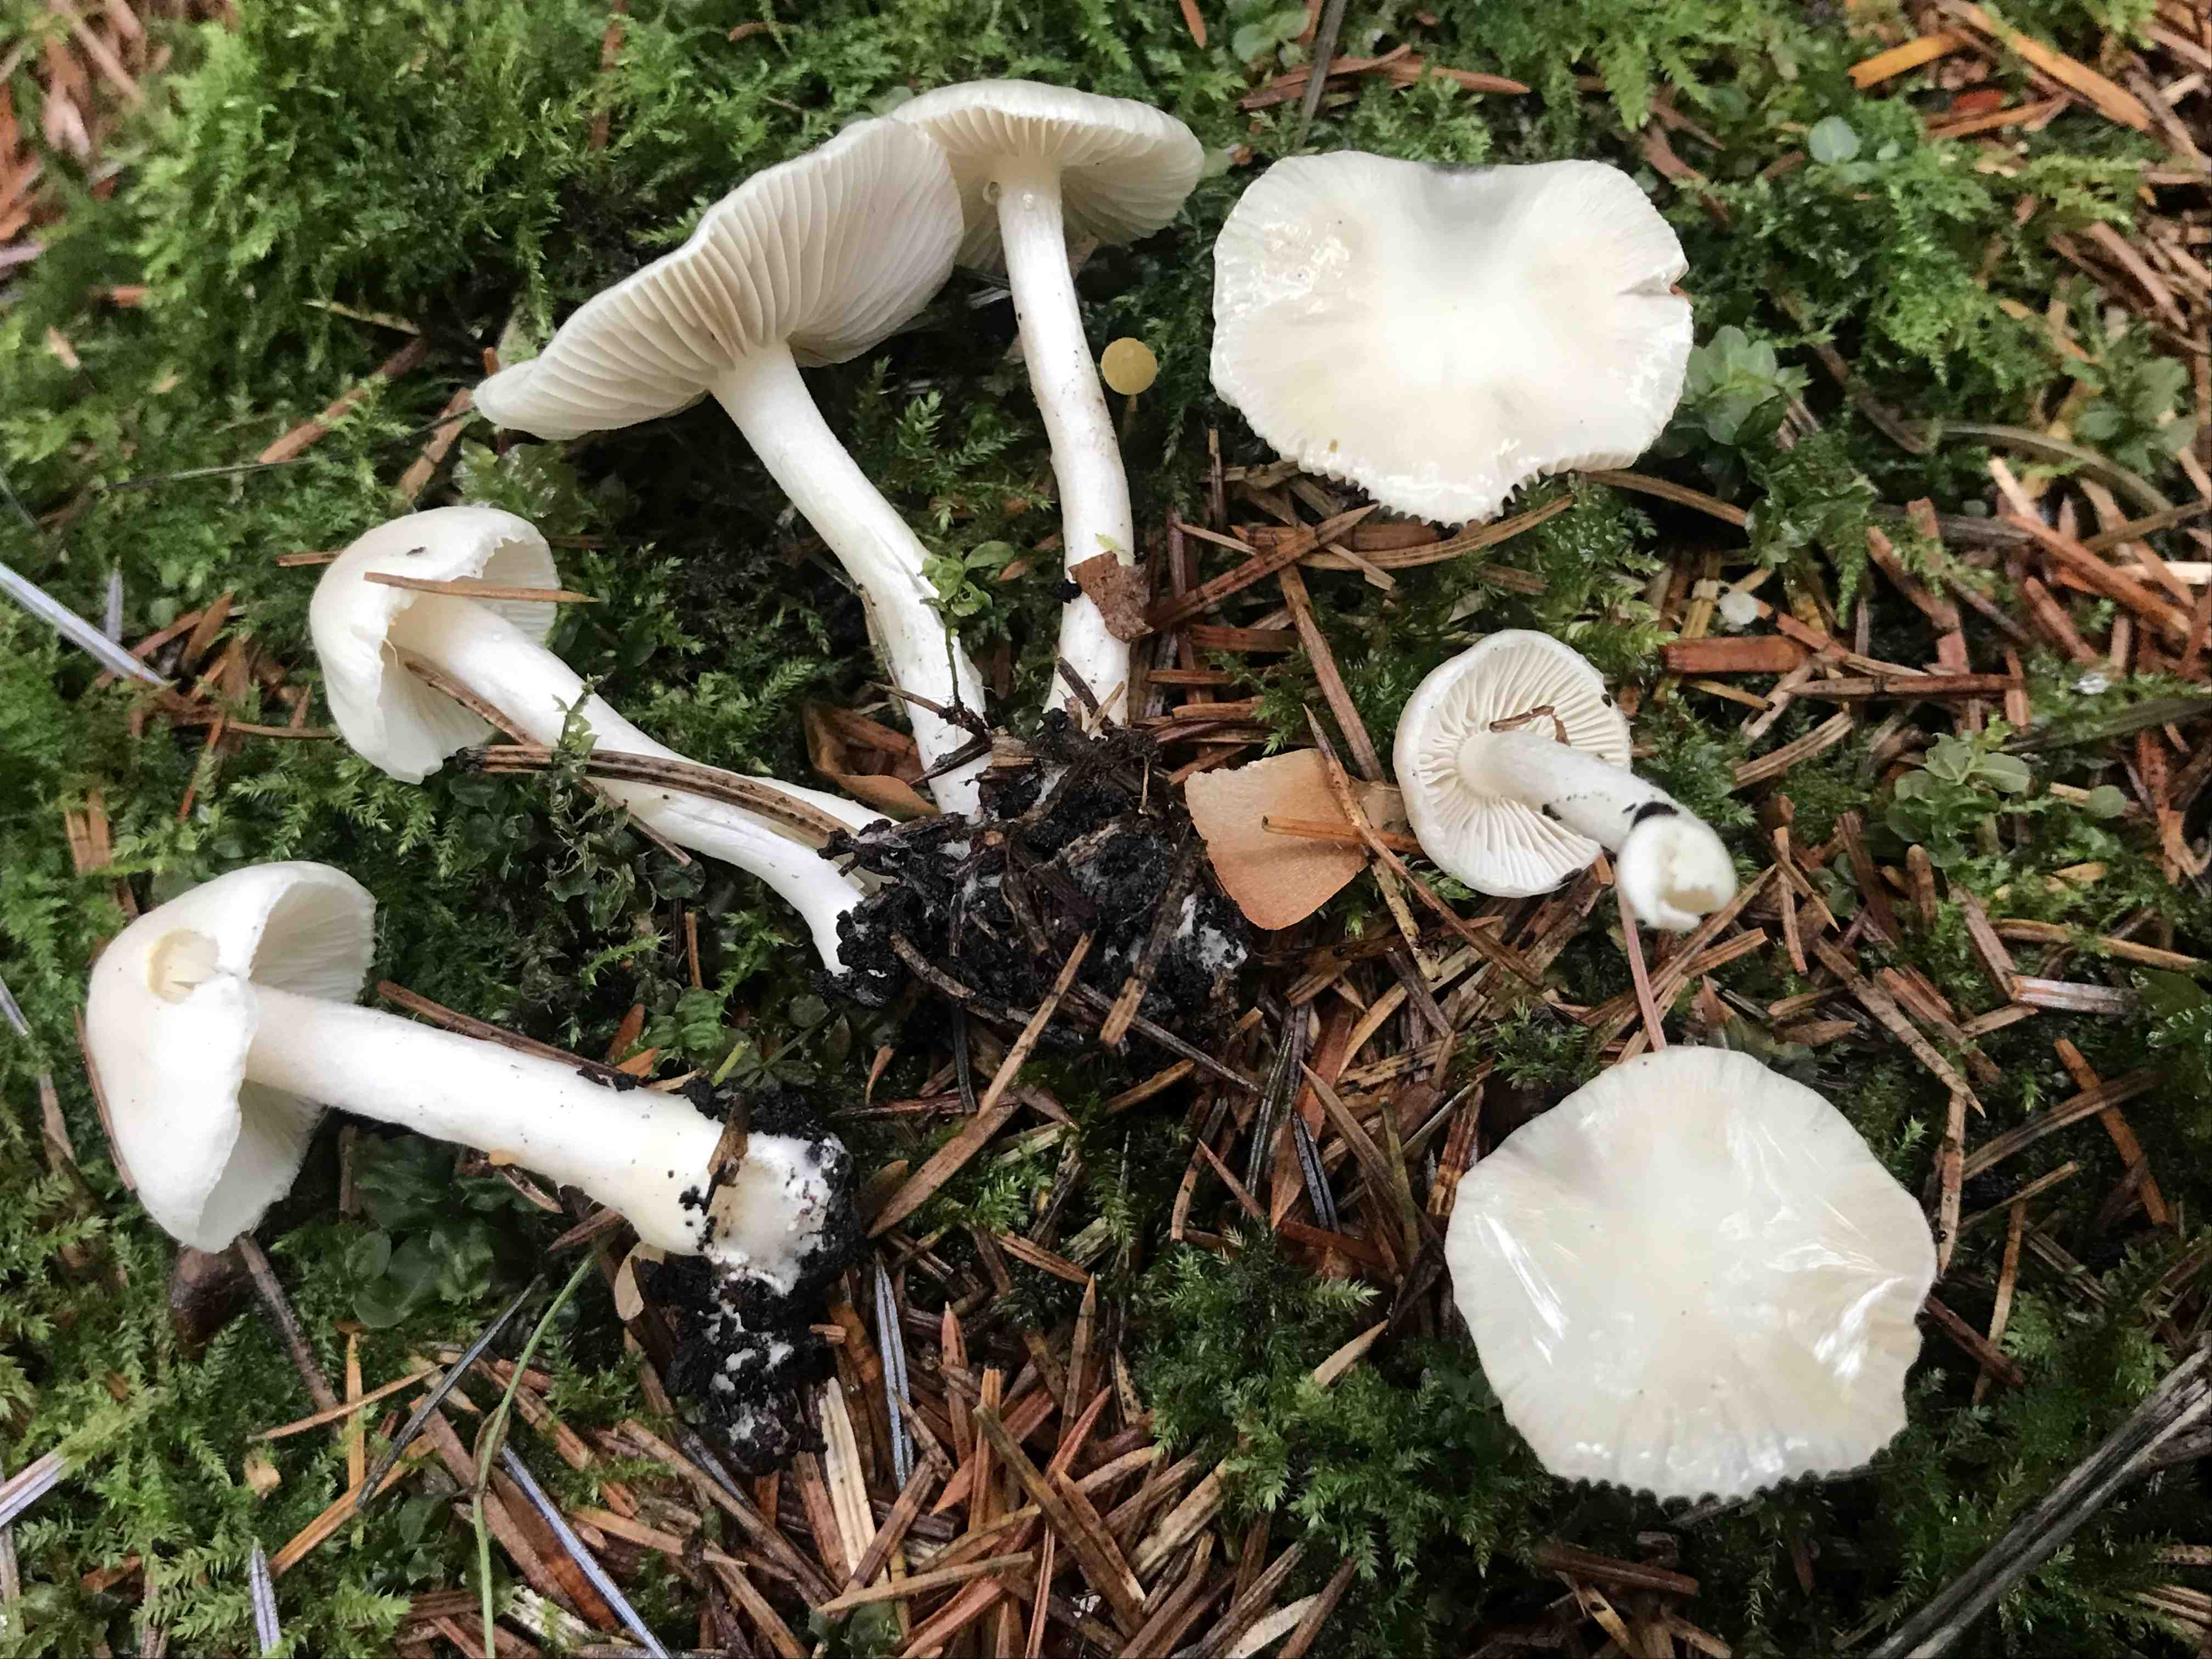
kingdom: Fungi
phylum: Basidiomycota
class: Agaricomycetes
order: Agaricales
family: Inocybaceae
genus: Inocybe
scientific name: Inocybe
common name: almindelig trævlhat
